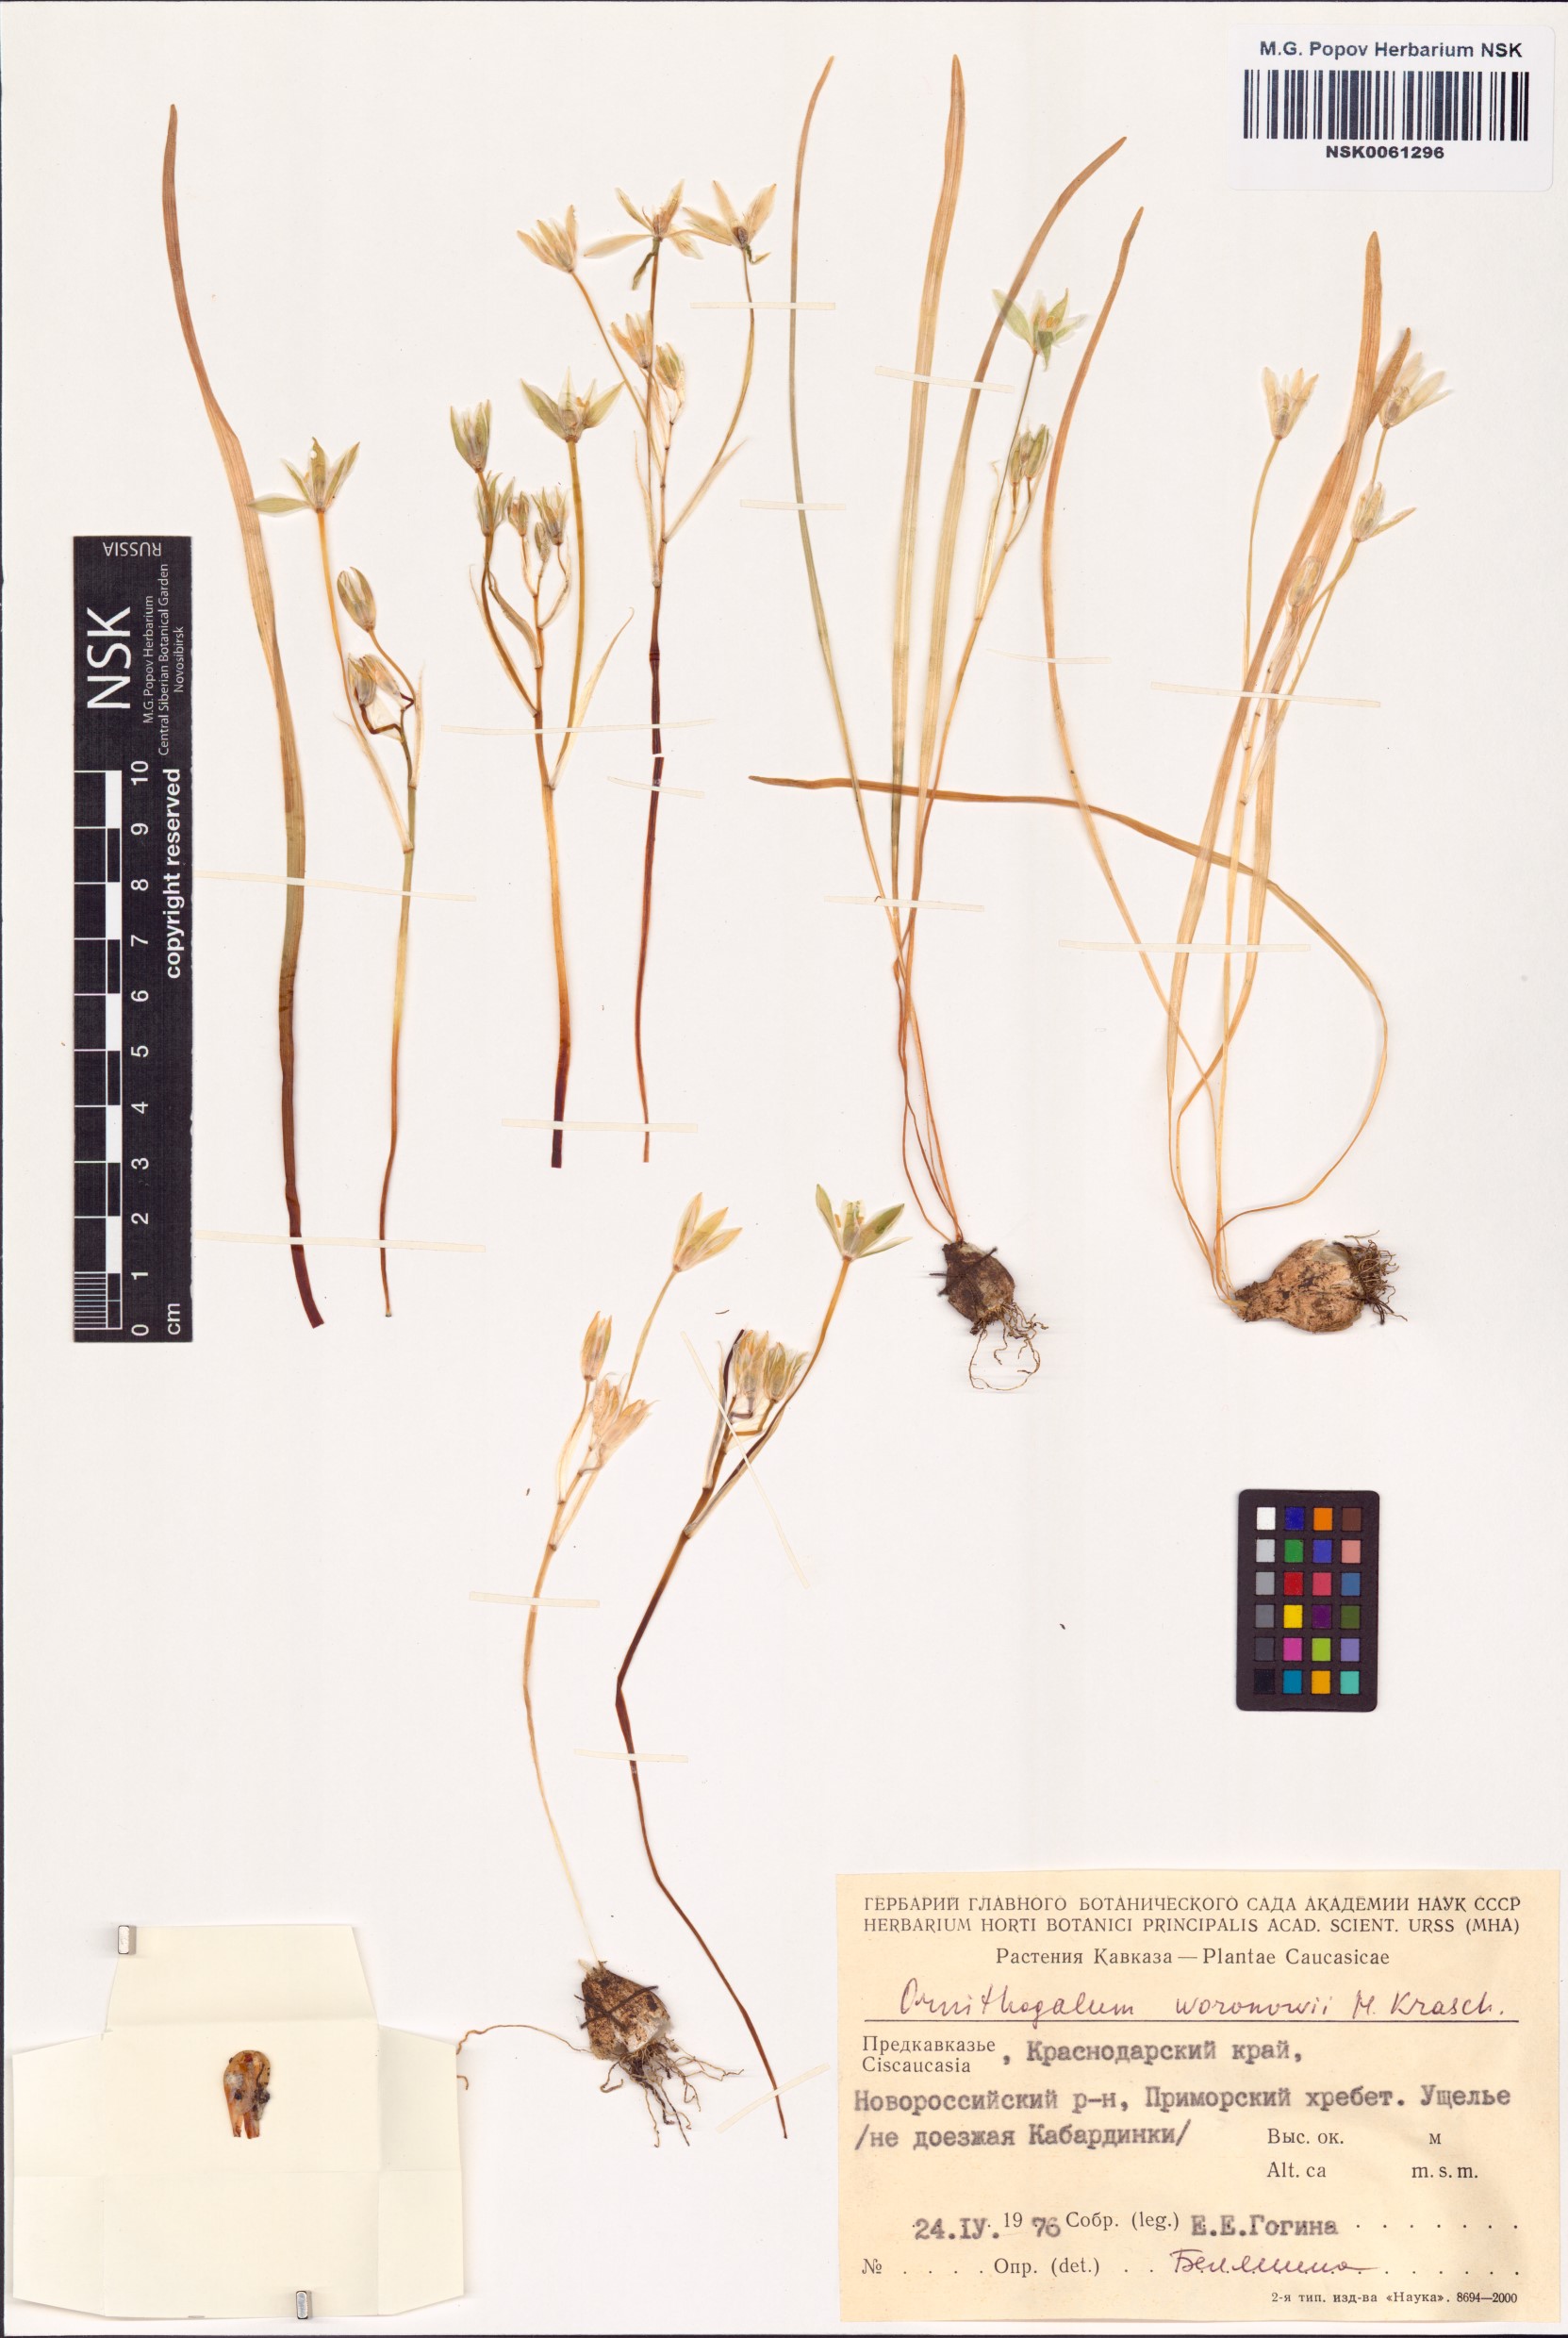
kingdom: Plantae
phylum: Tracheophyta
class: Liliopsida
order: Asparagales
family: Asparagaceae
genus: Ornithogalum
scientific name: Ornithogalum woronowii
